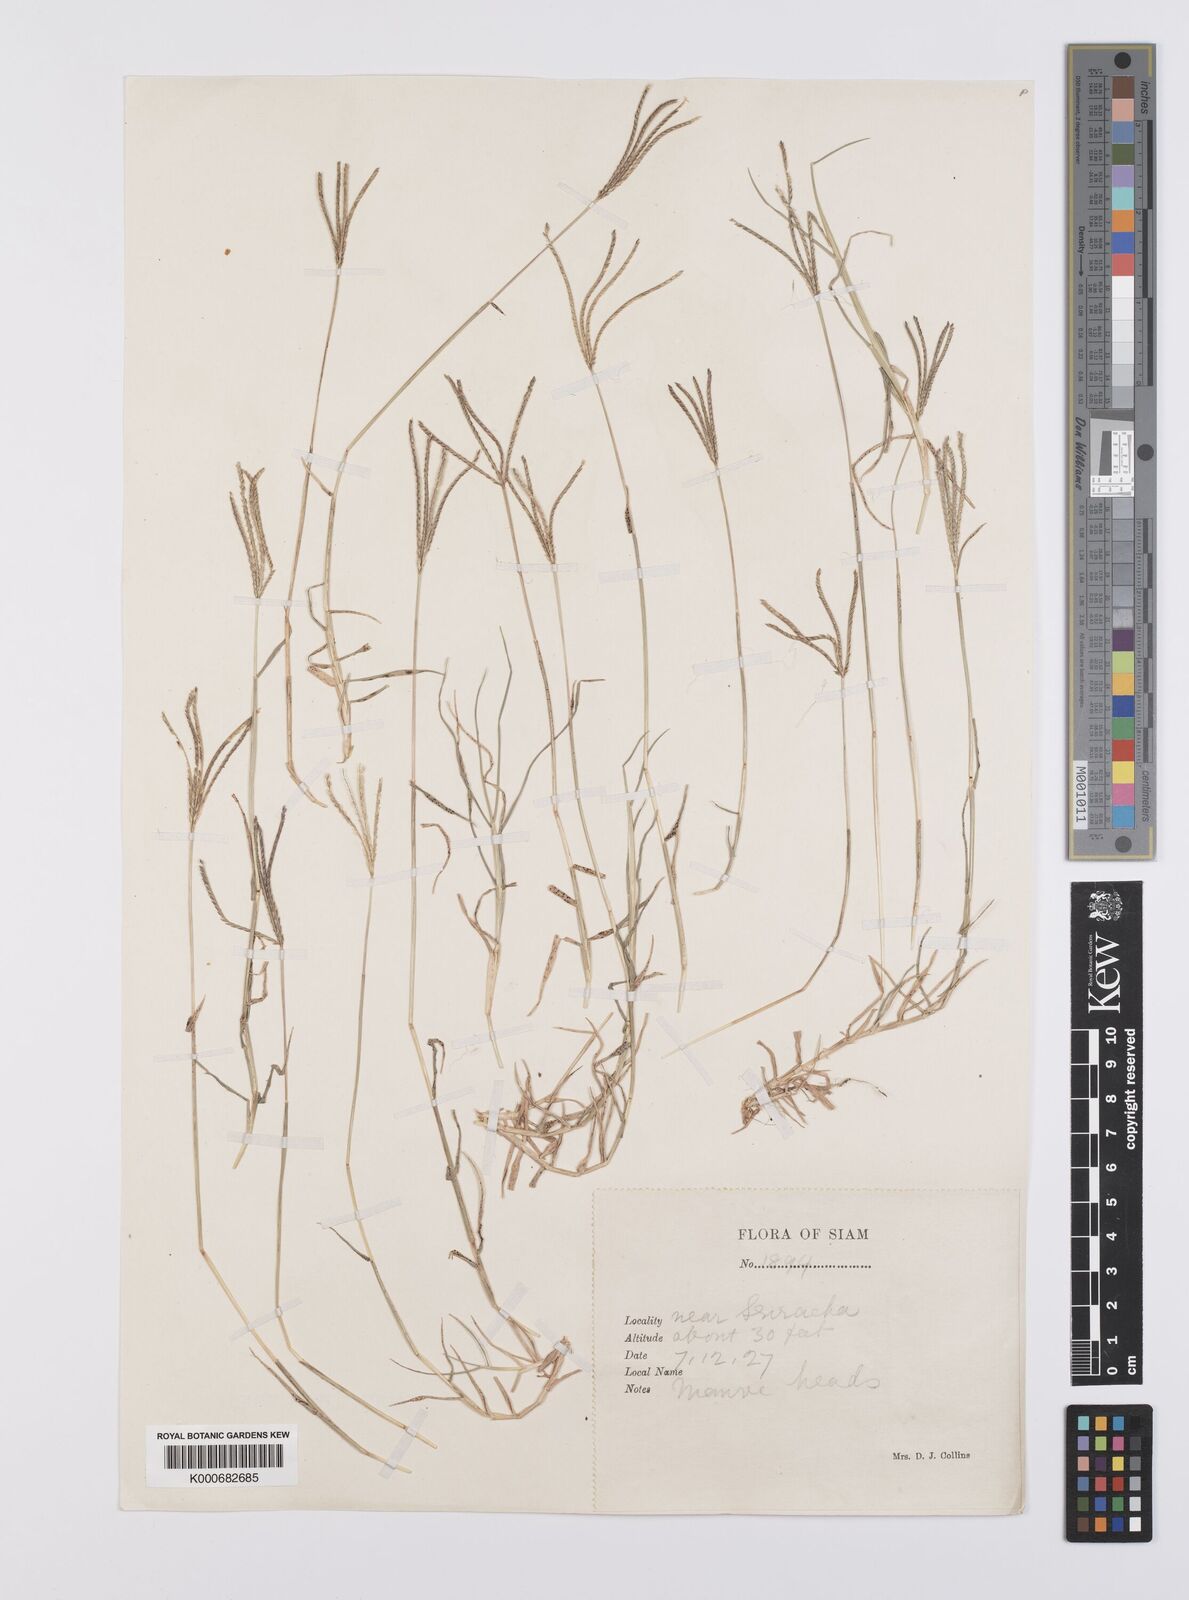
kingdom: Plantae
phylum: Tracheophyta
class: Liliopsida
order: Poales
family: Poaceae
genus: Cynodon
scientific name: Cynodon dactylon
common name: Bermuda grass
